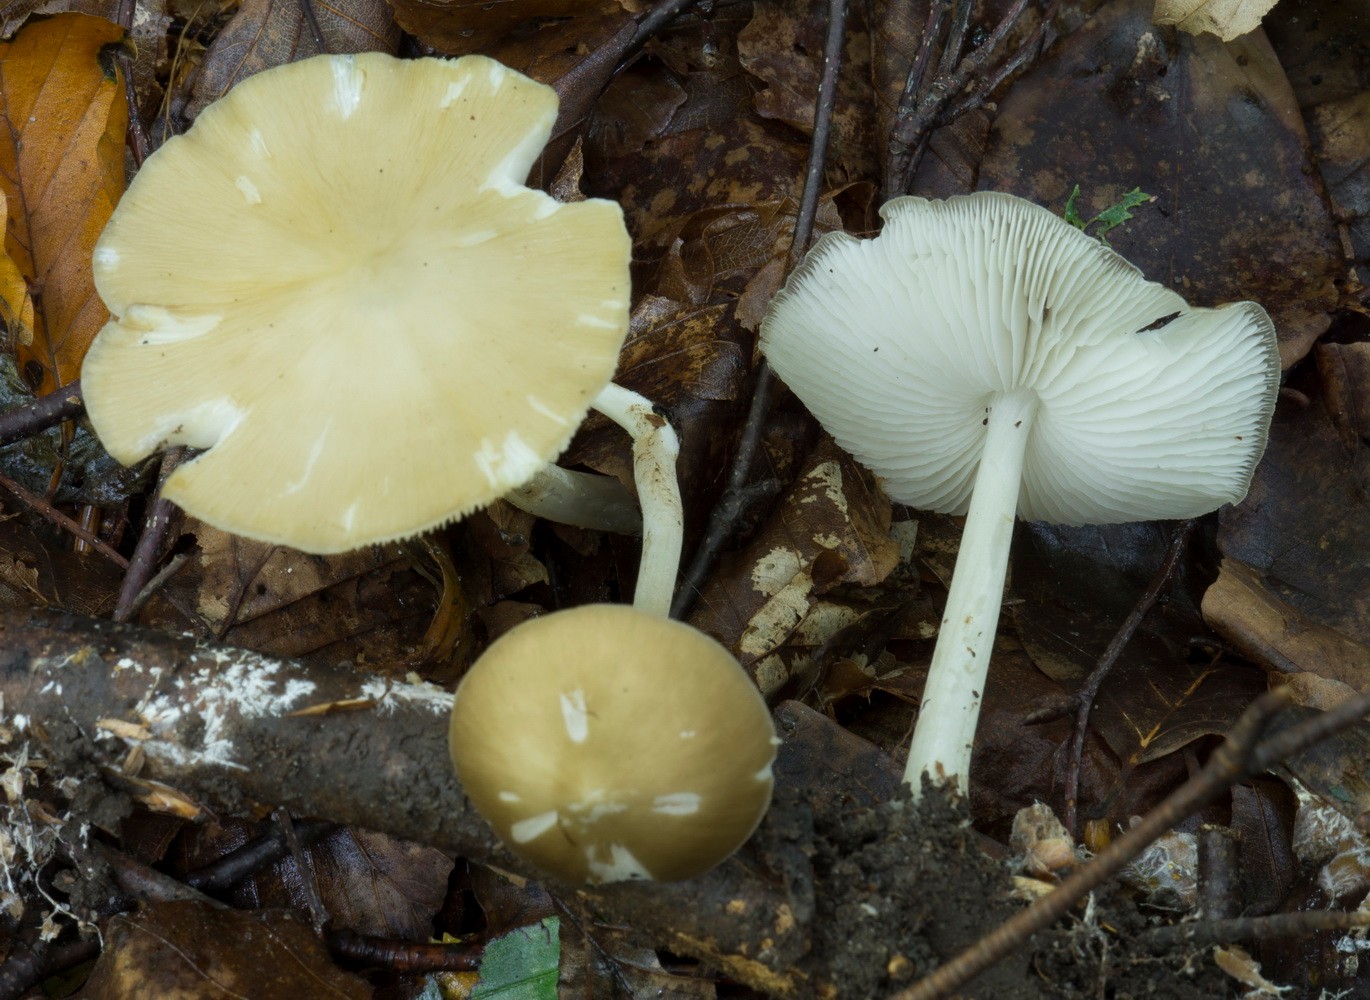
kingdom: Fungi
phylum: Basidiomycota
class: Agaricomycetes
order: Agaricales
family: Porotheleaceae
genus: Hydropodia
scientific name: Hydropodia subalpina
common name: vår-fnugfod
